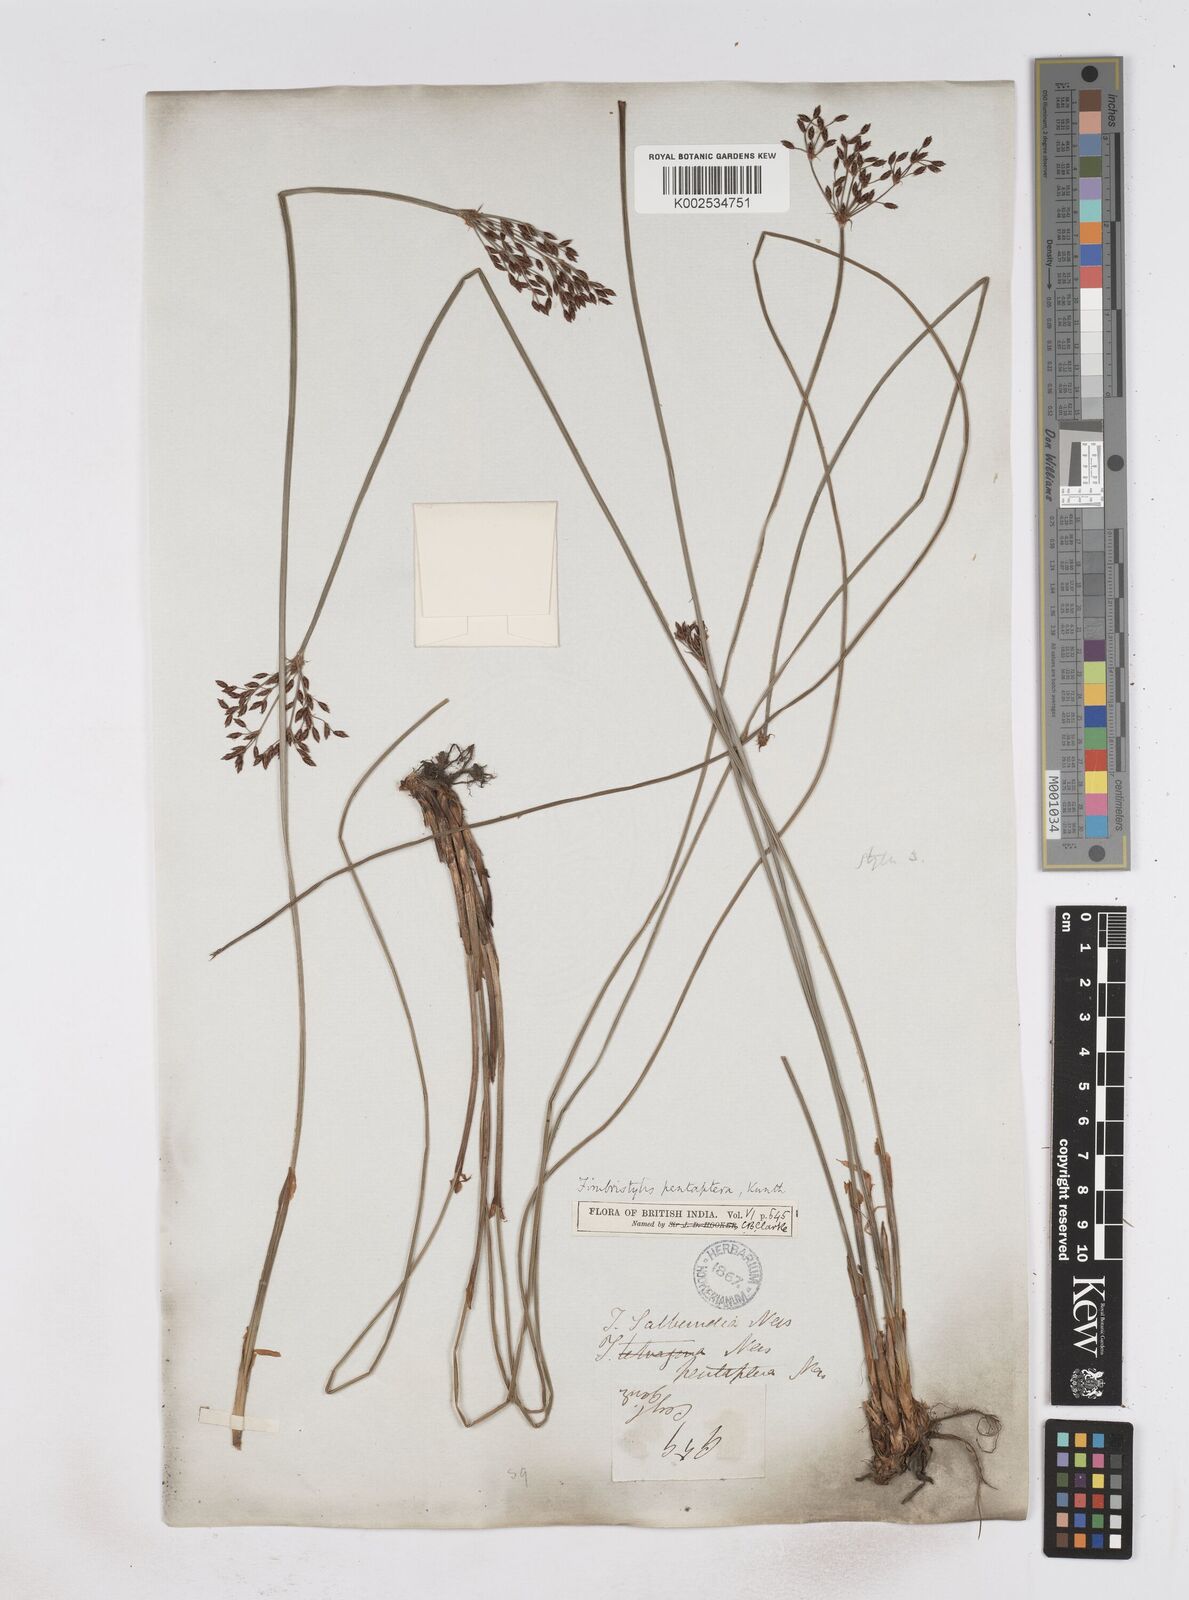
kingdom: Plantae
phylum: Tracheophyta
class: Liliopsida
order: Poales
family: Cyperaceae
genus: Fimbristylis
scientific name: Fimbristylis salbundia
